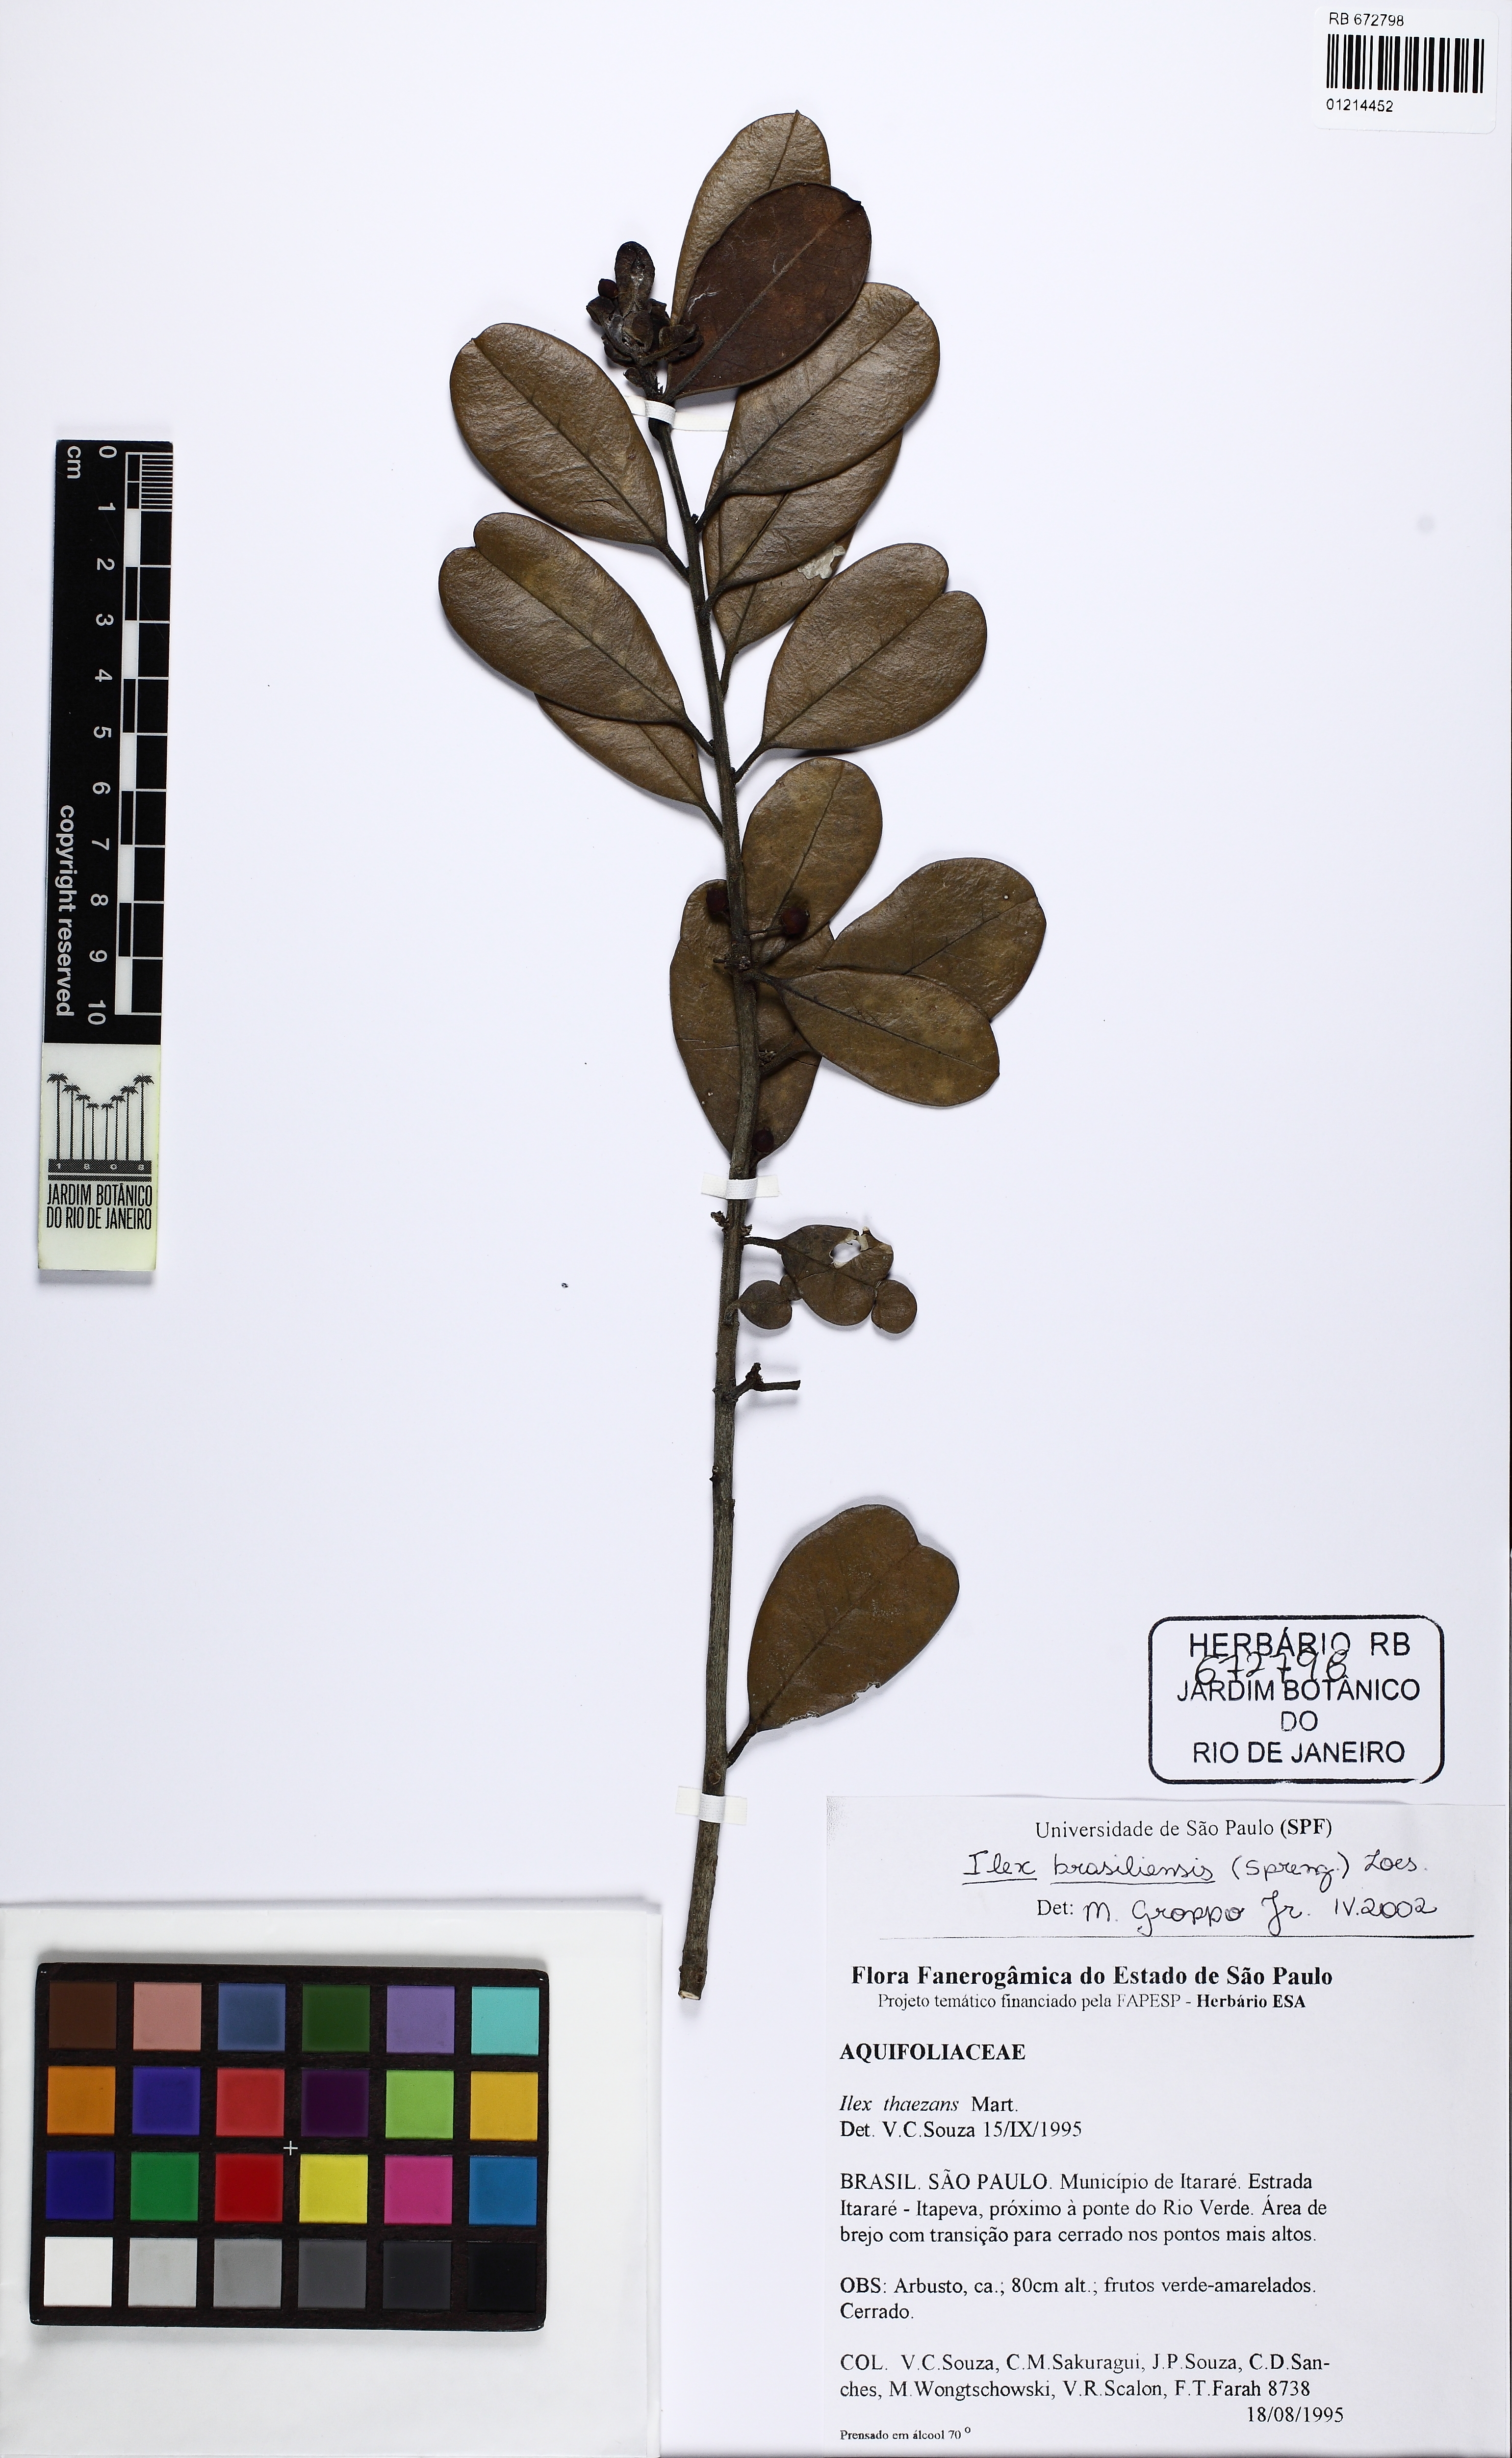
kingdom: Plantae
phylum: Tracheophyta
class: Magnoliopsida
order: Aquifoliales
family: Aquifoliaceae
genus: Ilex
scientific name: Ilex brasiliensis
